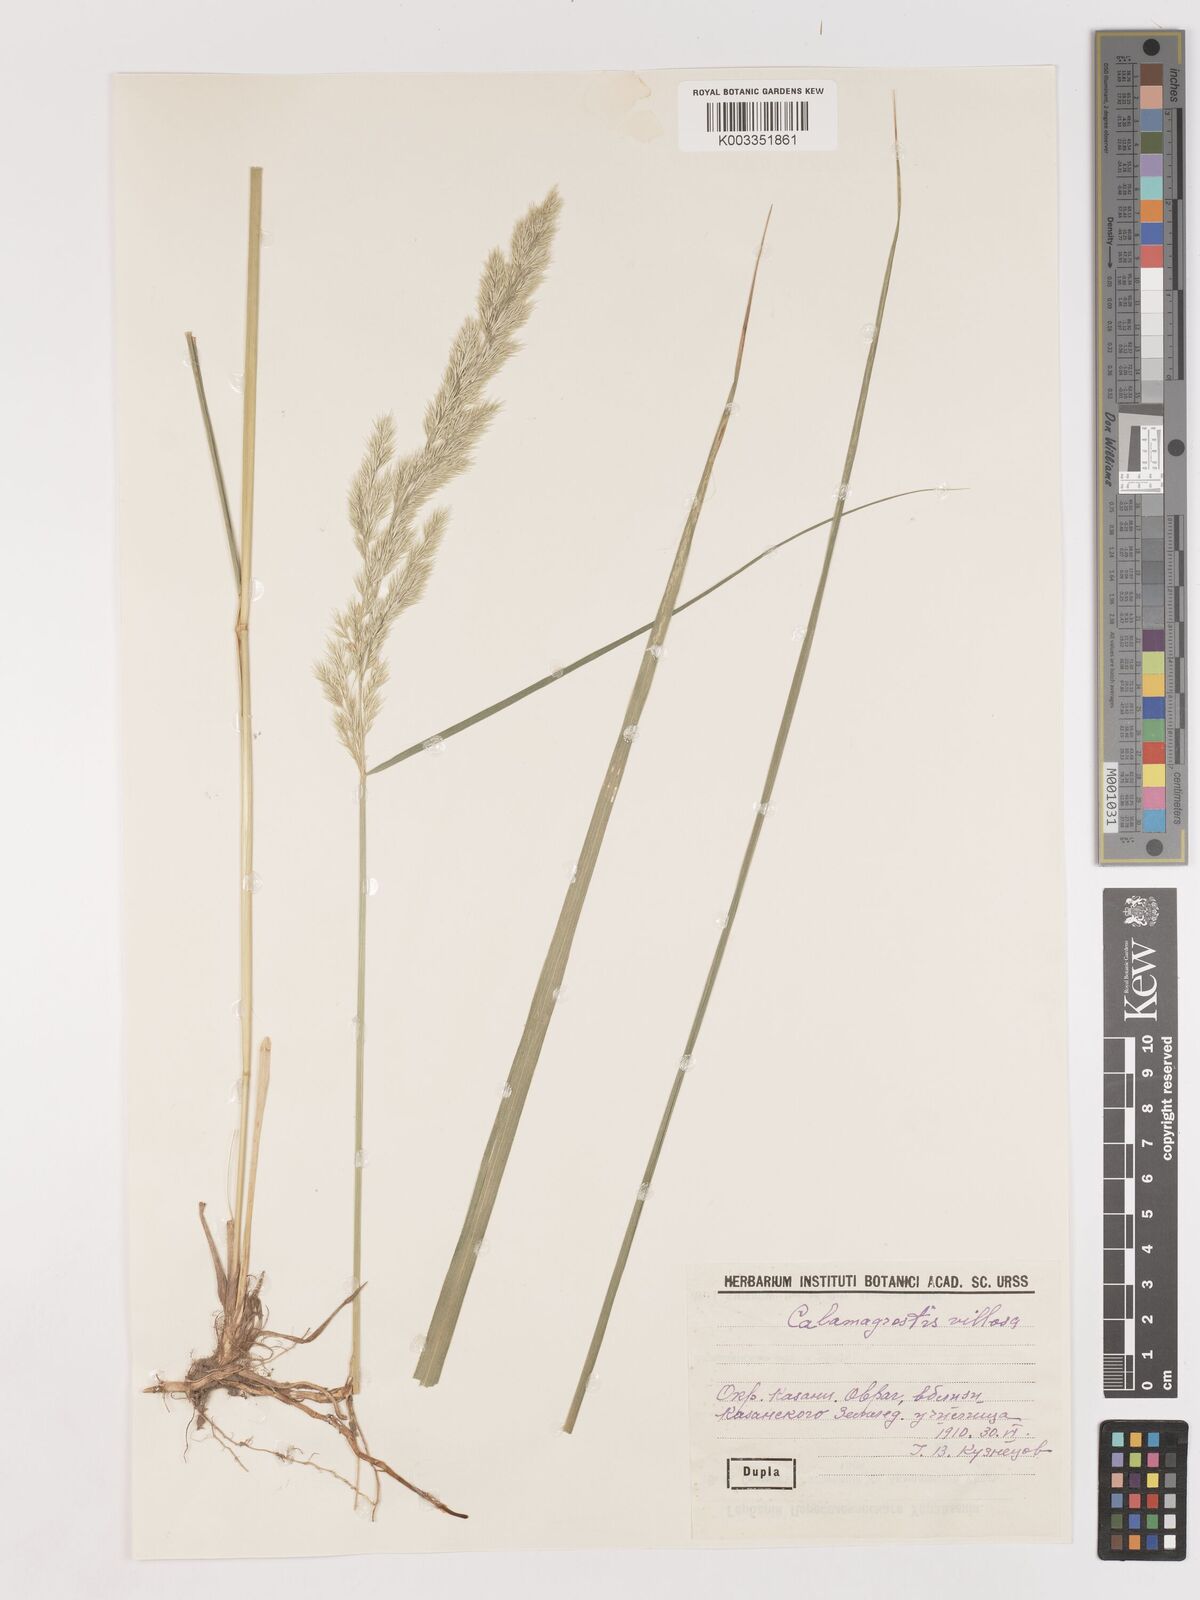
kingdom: Plantae
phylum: Tracheophyta
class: Liliopsida
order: Poales
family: Poaceae
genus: Calamagrostis
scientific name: Calamagrostis villosa
